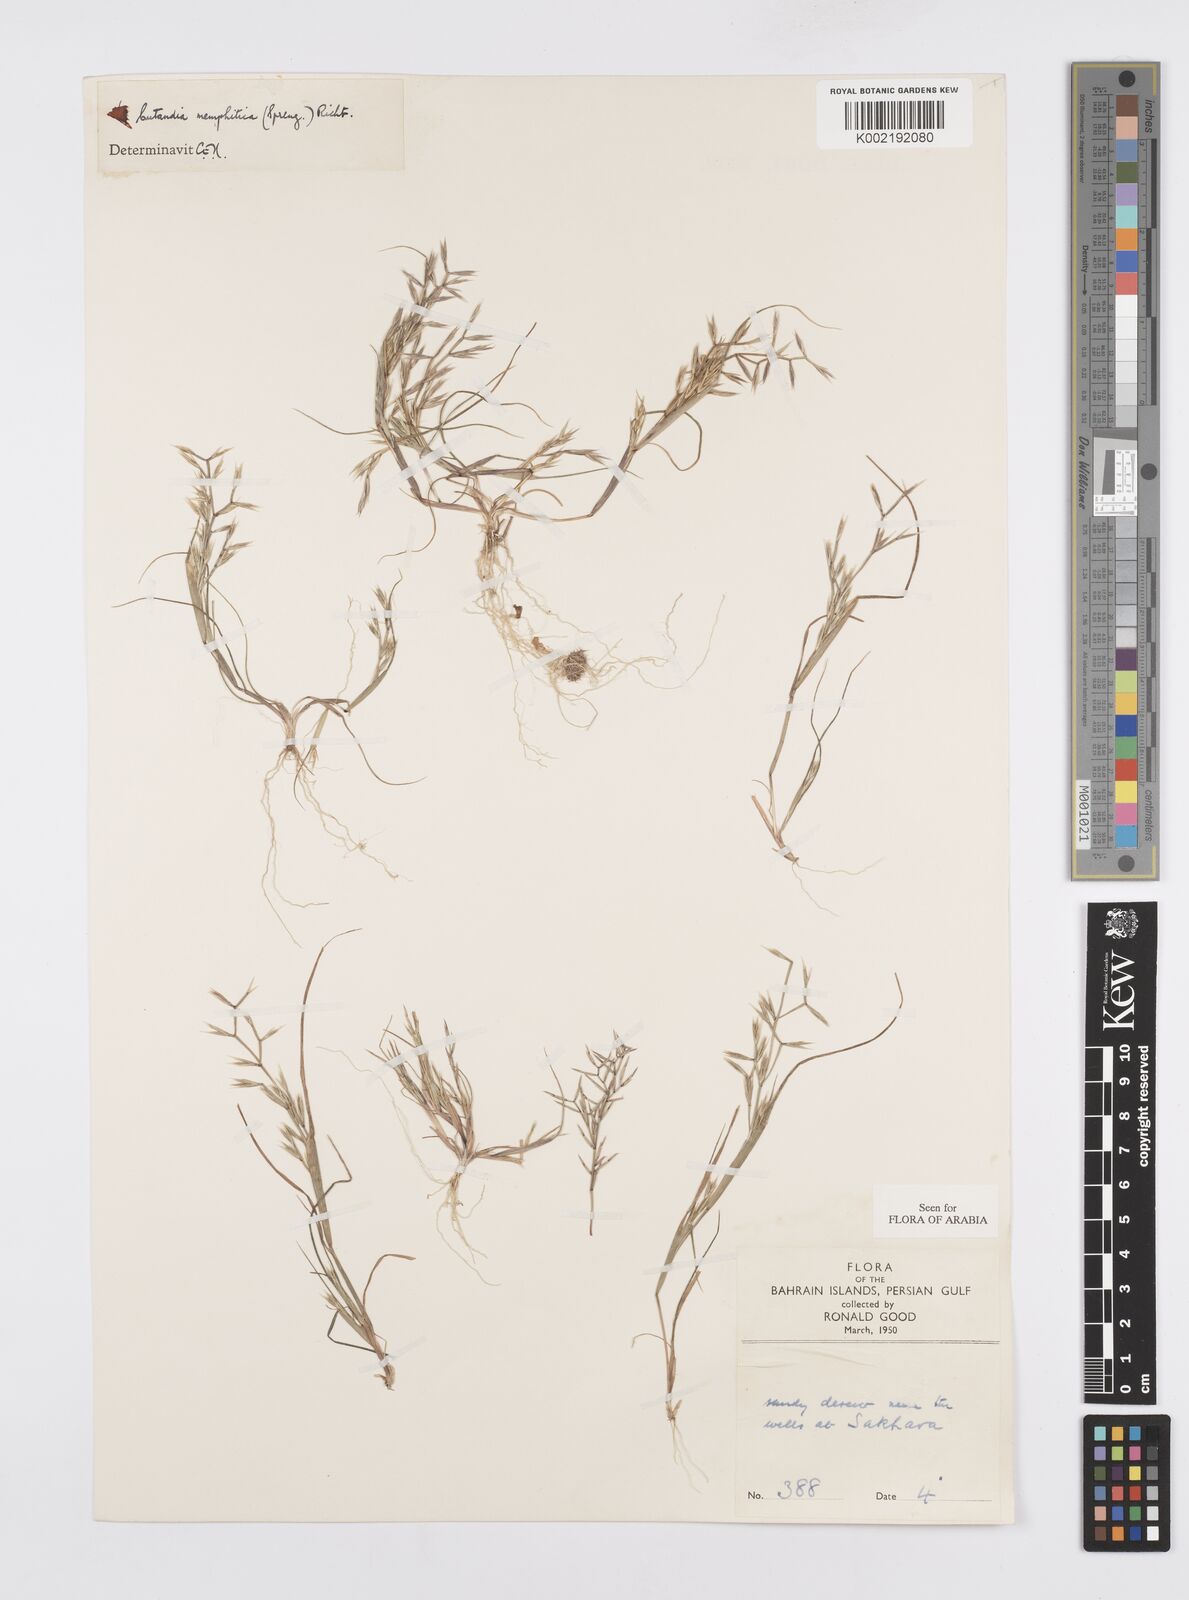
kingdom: Plantae
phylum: Tracheophyta
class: Liliopsida
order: Poales
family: Poaceae
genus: Cutandia
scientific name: Cutandia memphitica
